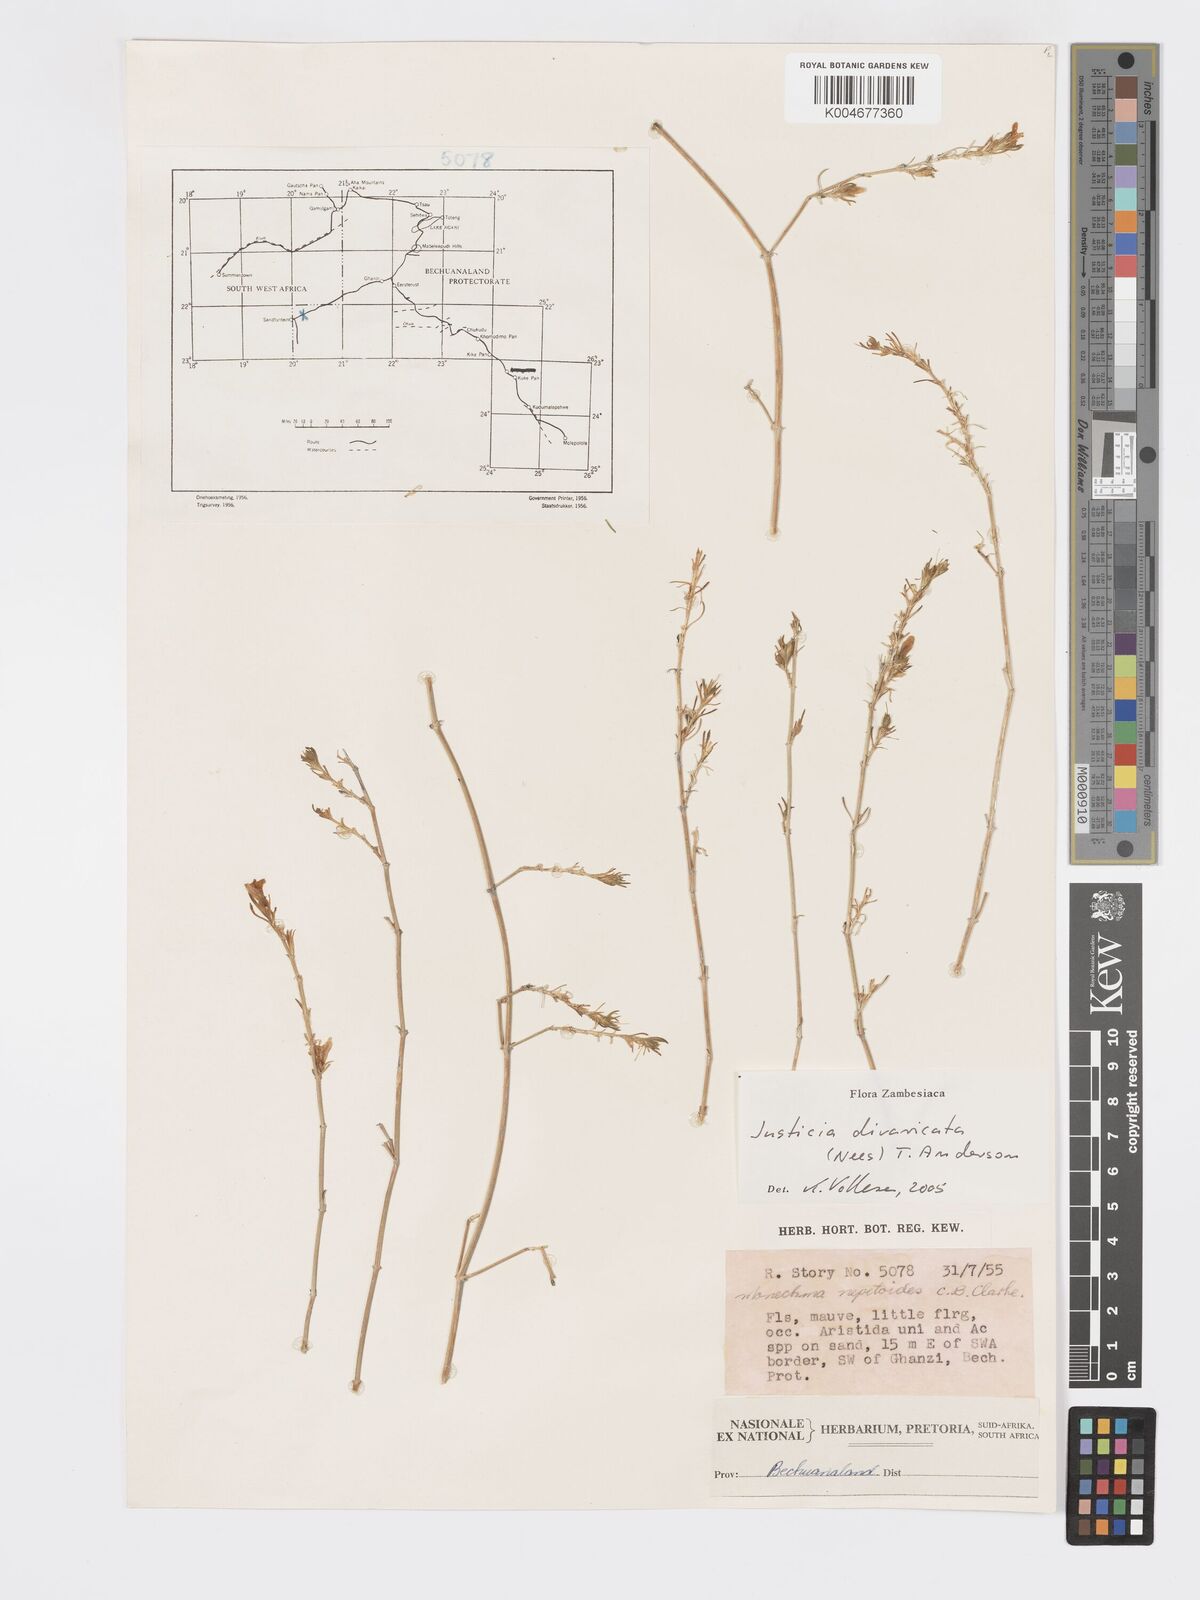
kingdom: Plantae
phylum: Tracheophyta
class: Magnoliopsida
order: Lamiales
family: Acanthaceae
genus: Pogonospermum
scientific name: Pogonospermum
